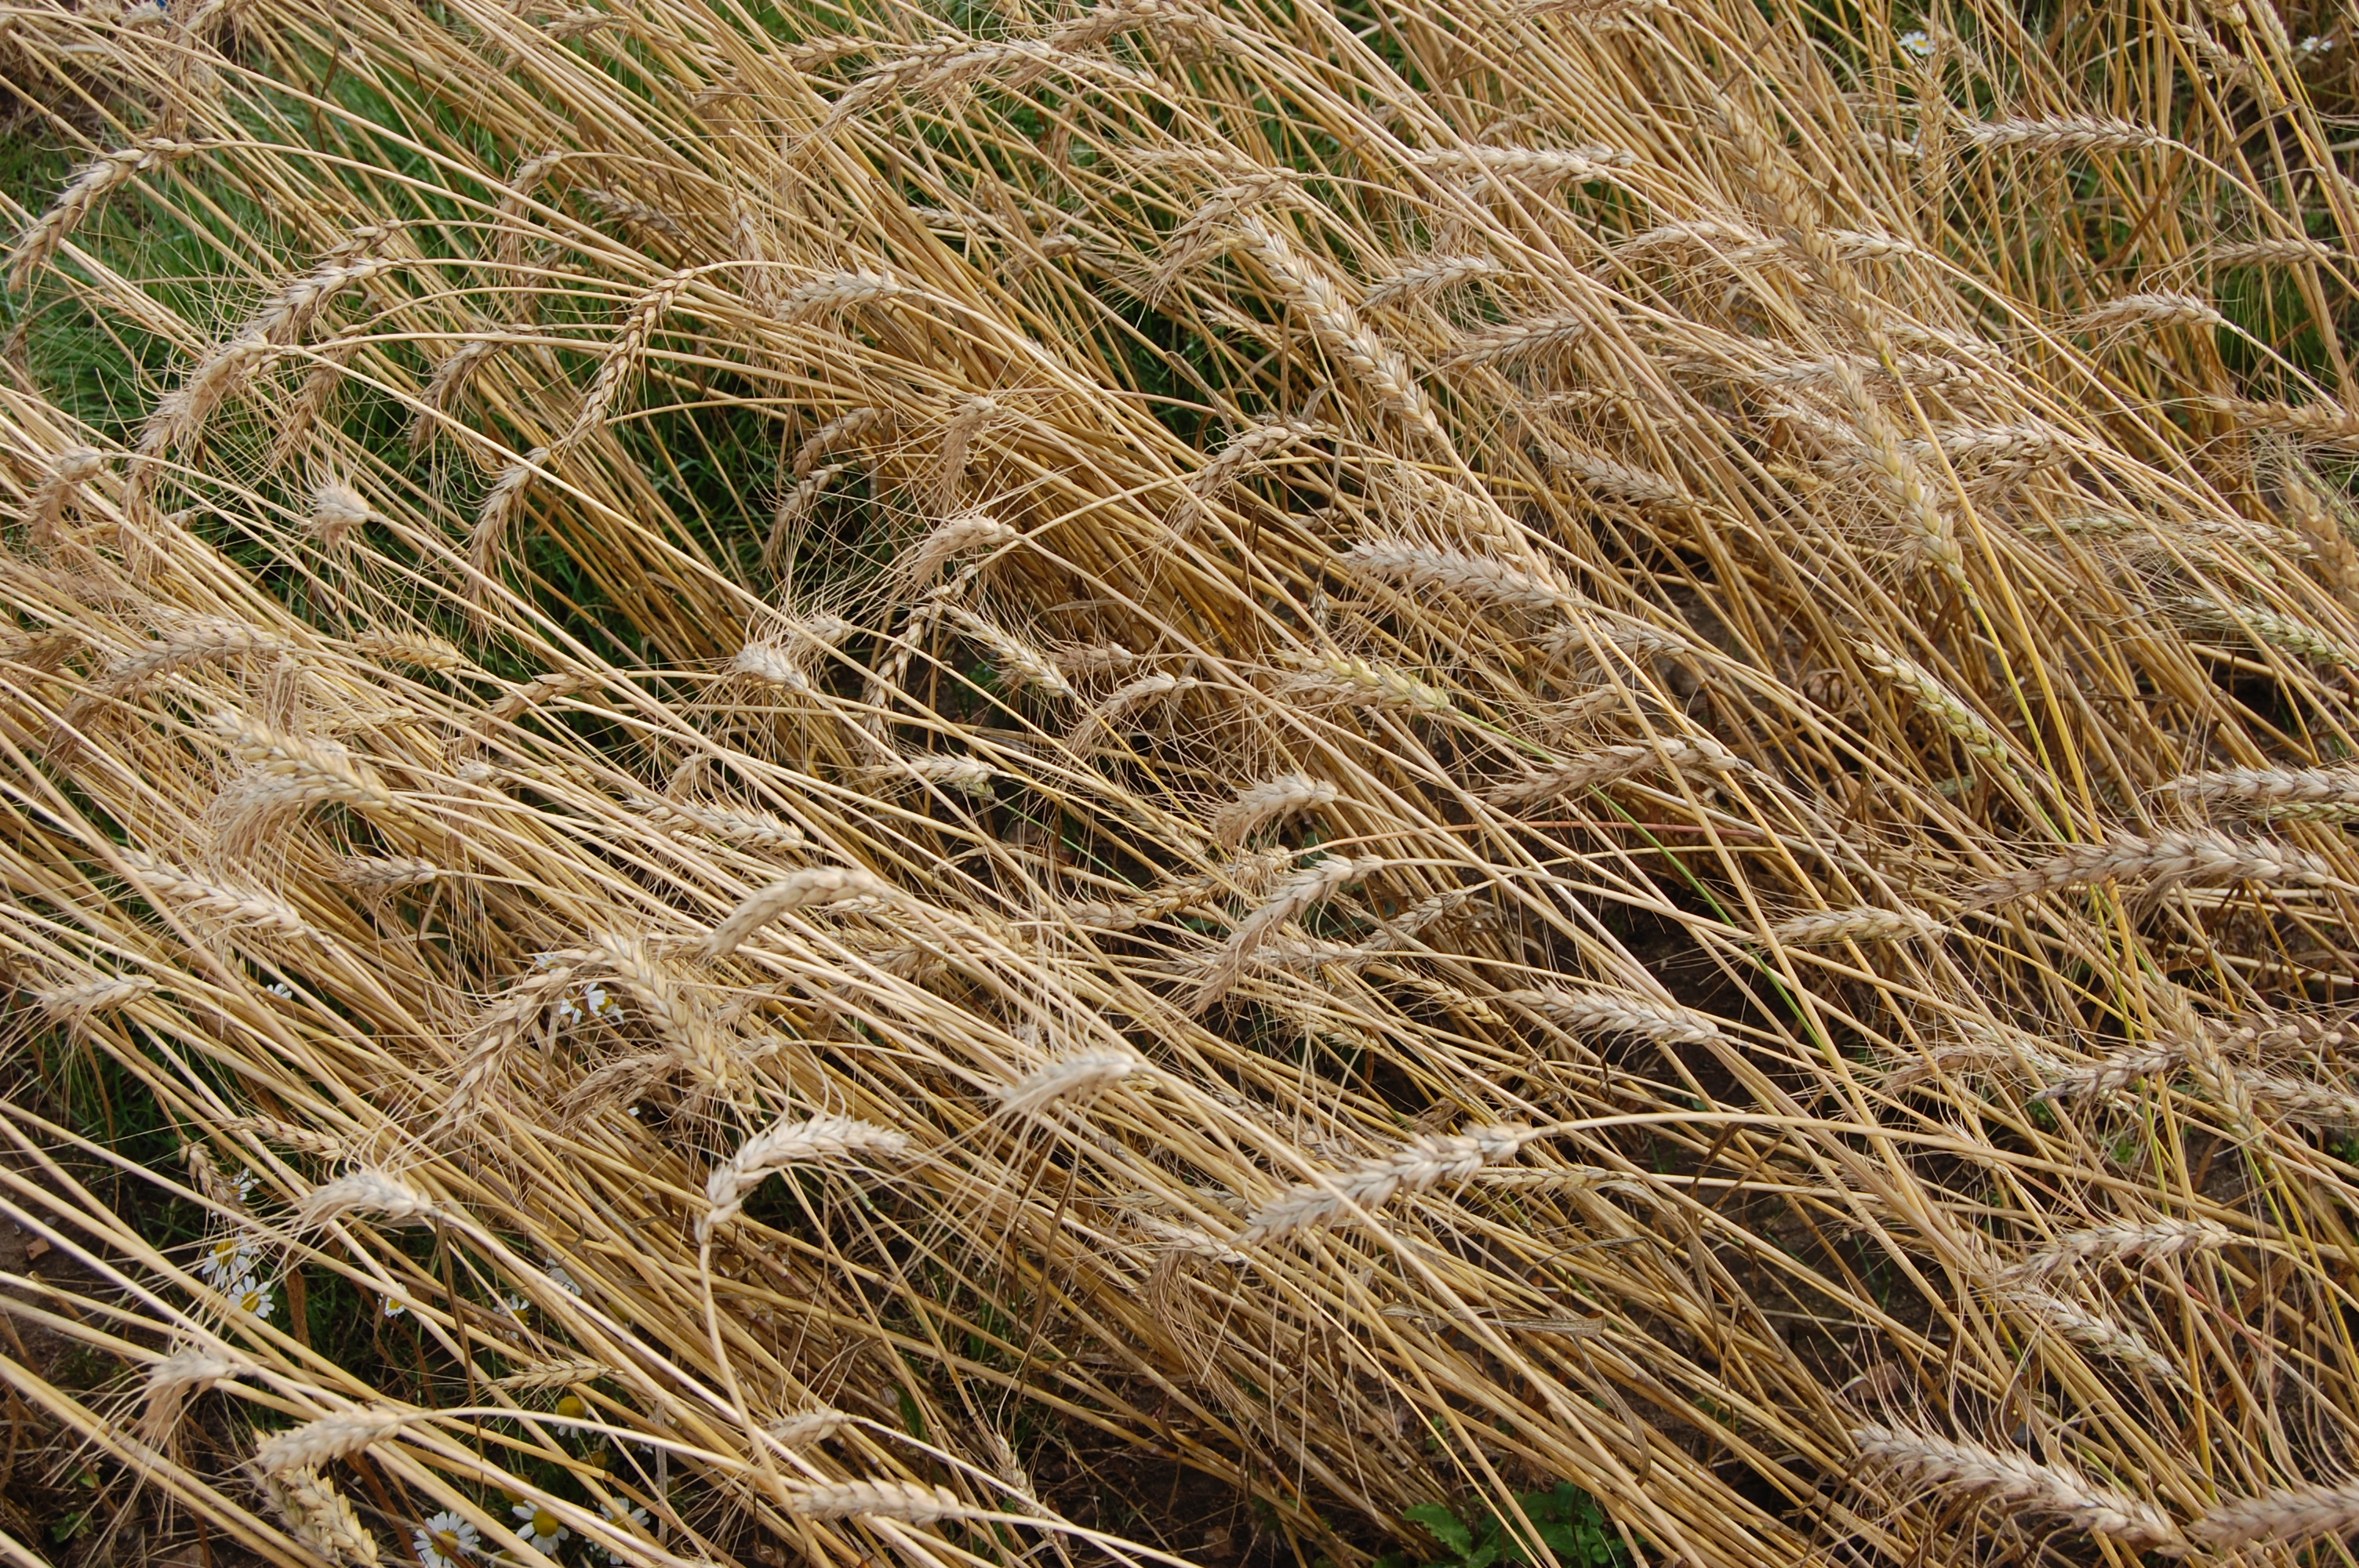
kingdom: Plantae
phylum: Tracheophyta
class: Liliopsida
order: Poales
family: Poaceae
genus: Triticum
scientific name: Triticum aestivum
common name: Common wheat
